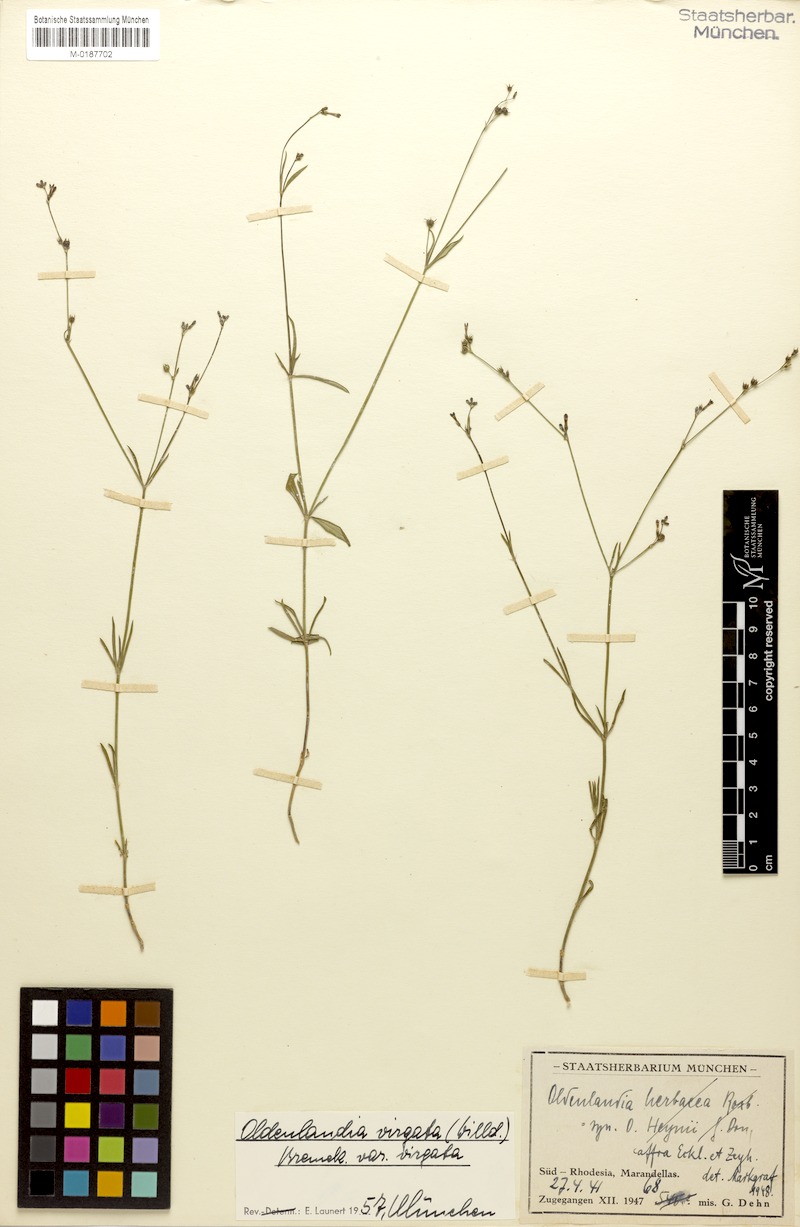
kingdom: Plantae
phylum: Tracheophyta
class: Magnoliopsida
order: Gentianales
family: Rubiaceae
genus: Cordylostigma
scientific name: Cordylostigma virgatum
